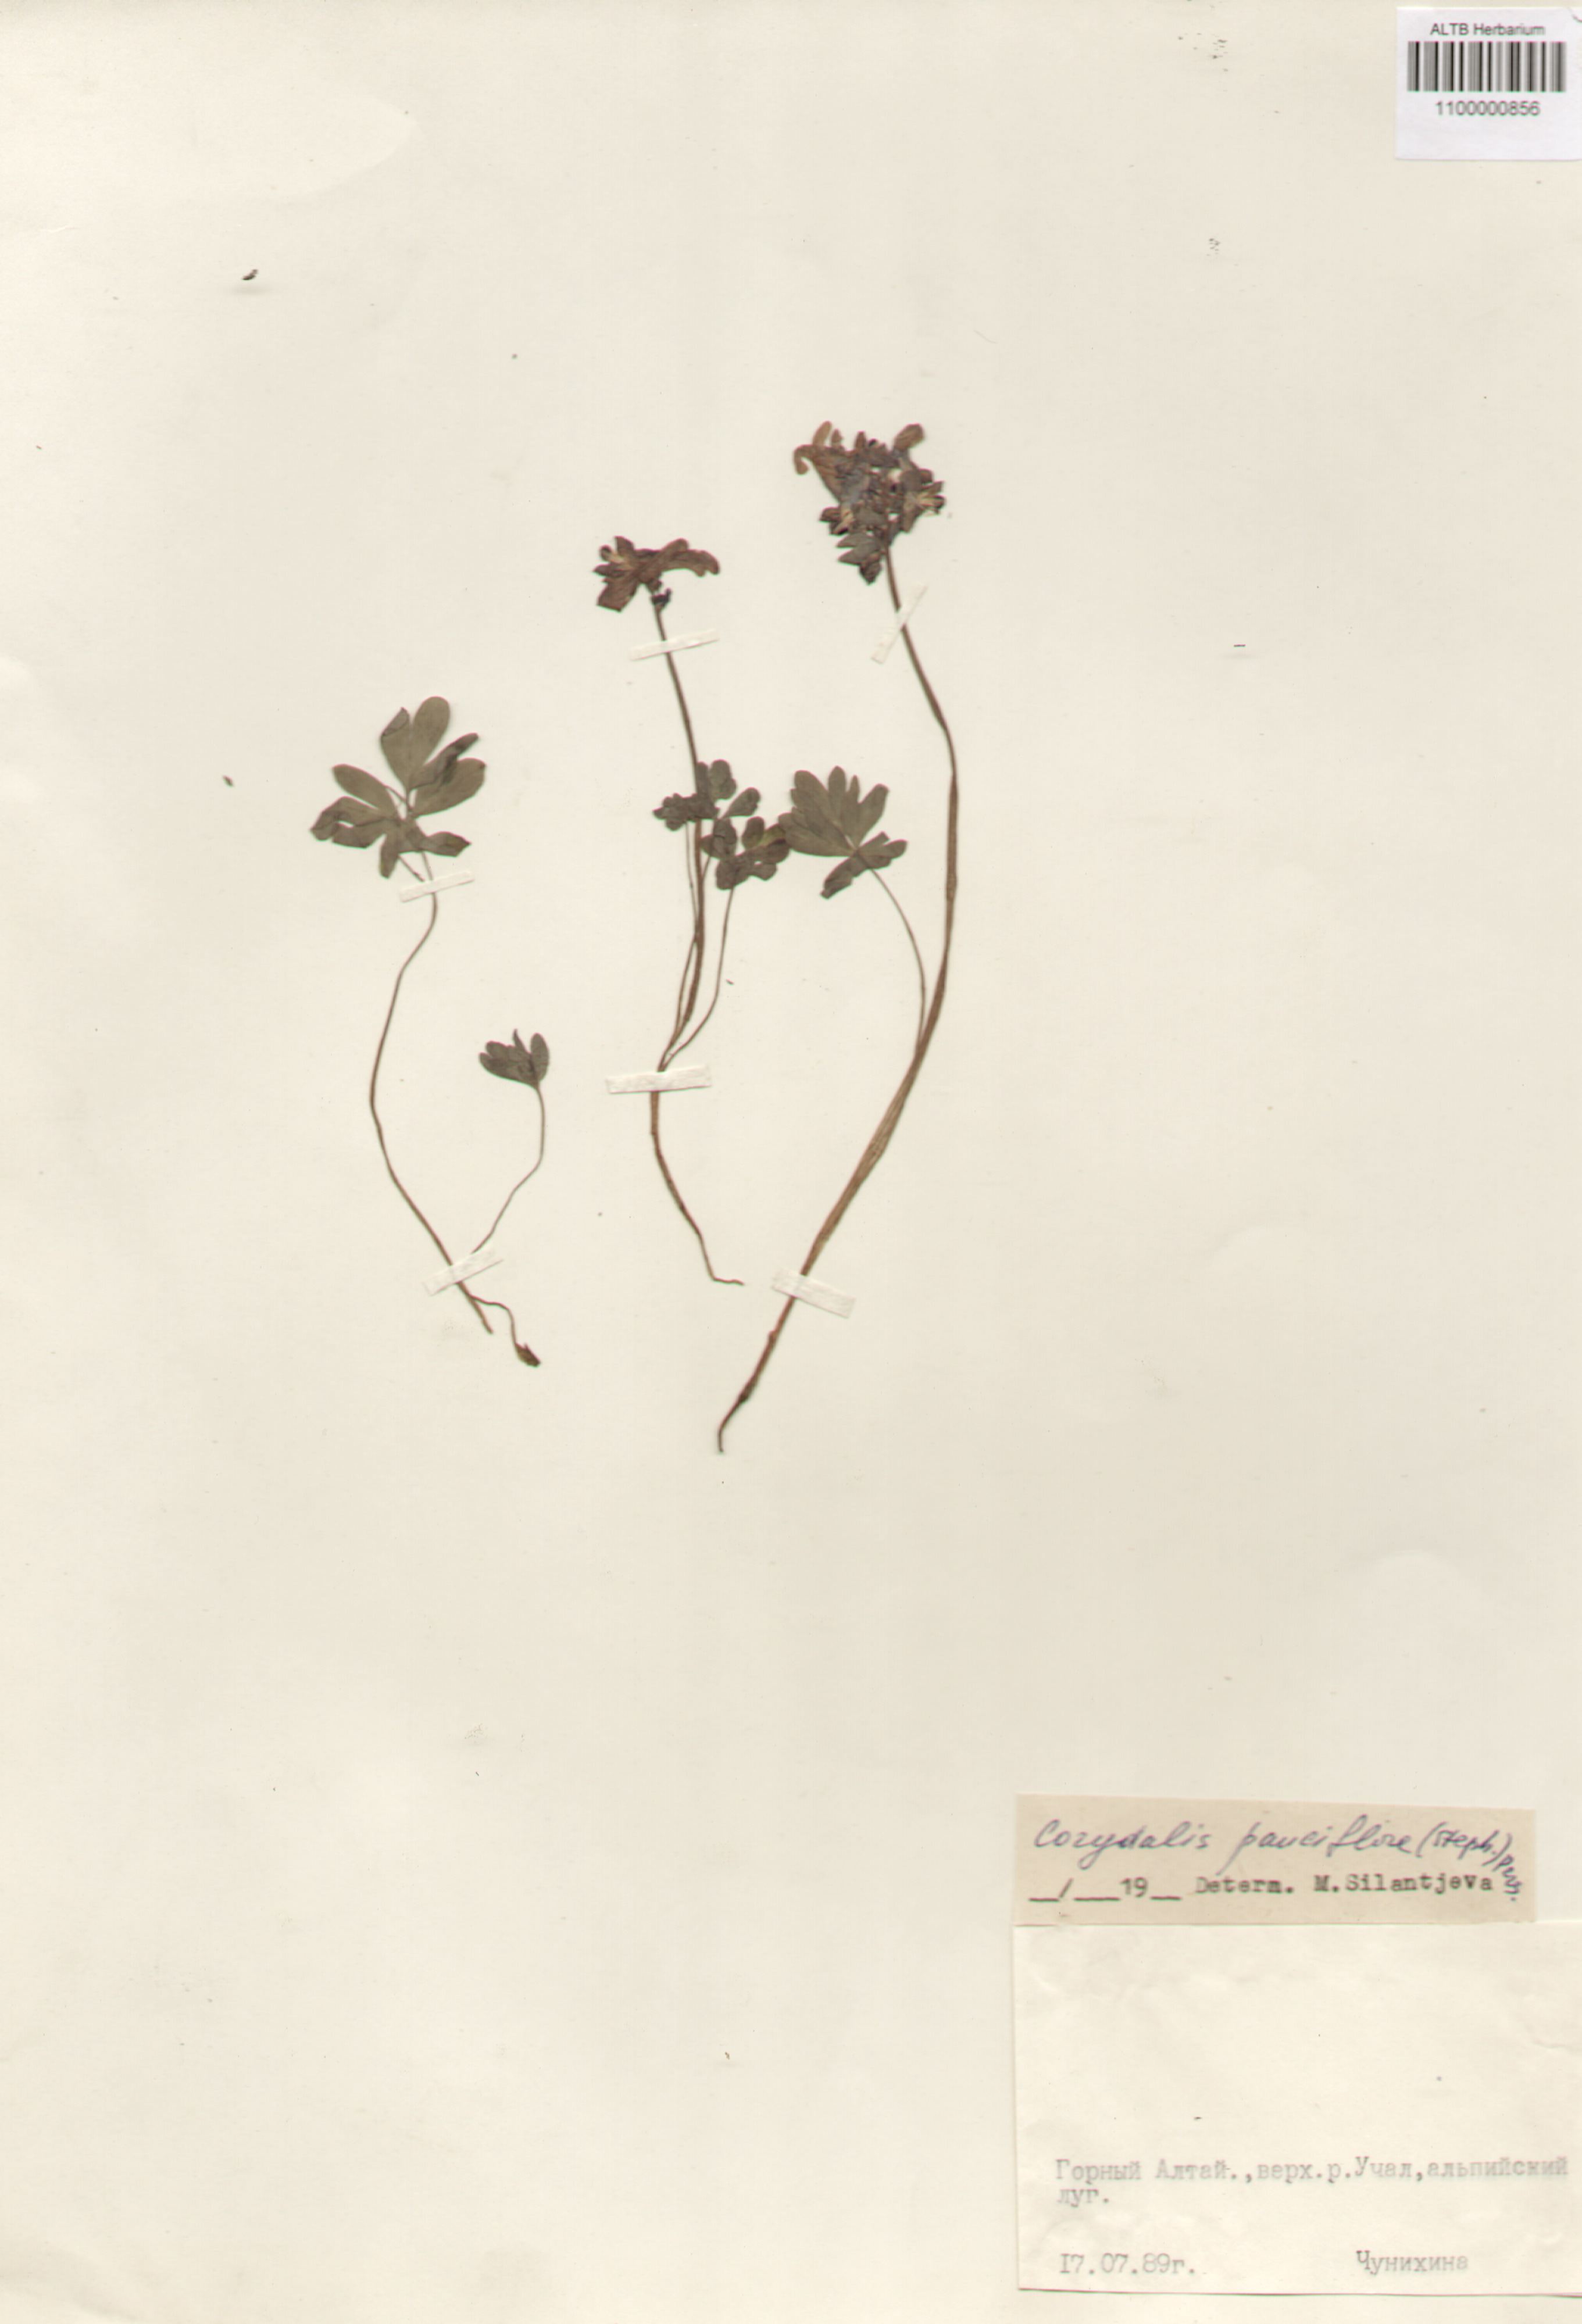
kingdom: Plantae
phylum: Tracheophyta
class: Magnoliopsida
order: Ranunculales
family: Papaveraceae
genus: Corydalis
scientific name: Corydalis pauciflora
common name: Blue corydalis
